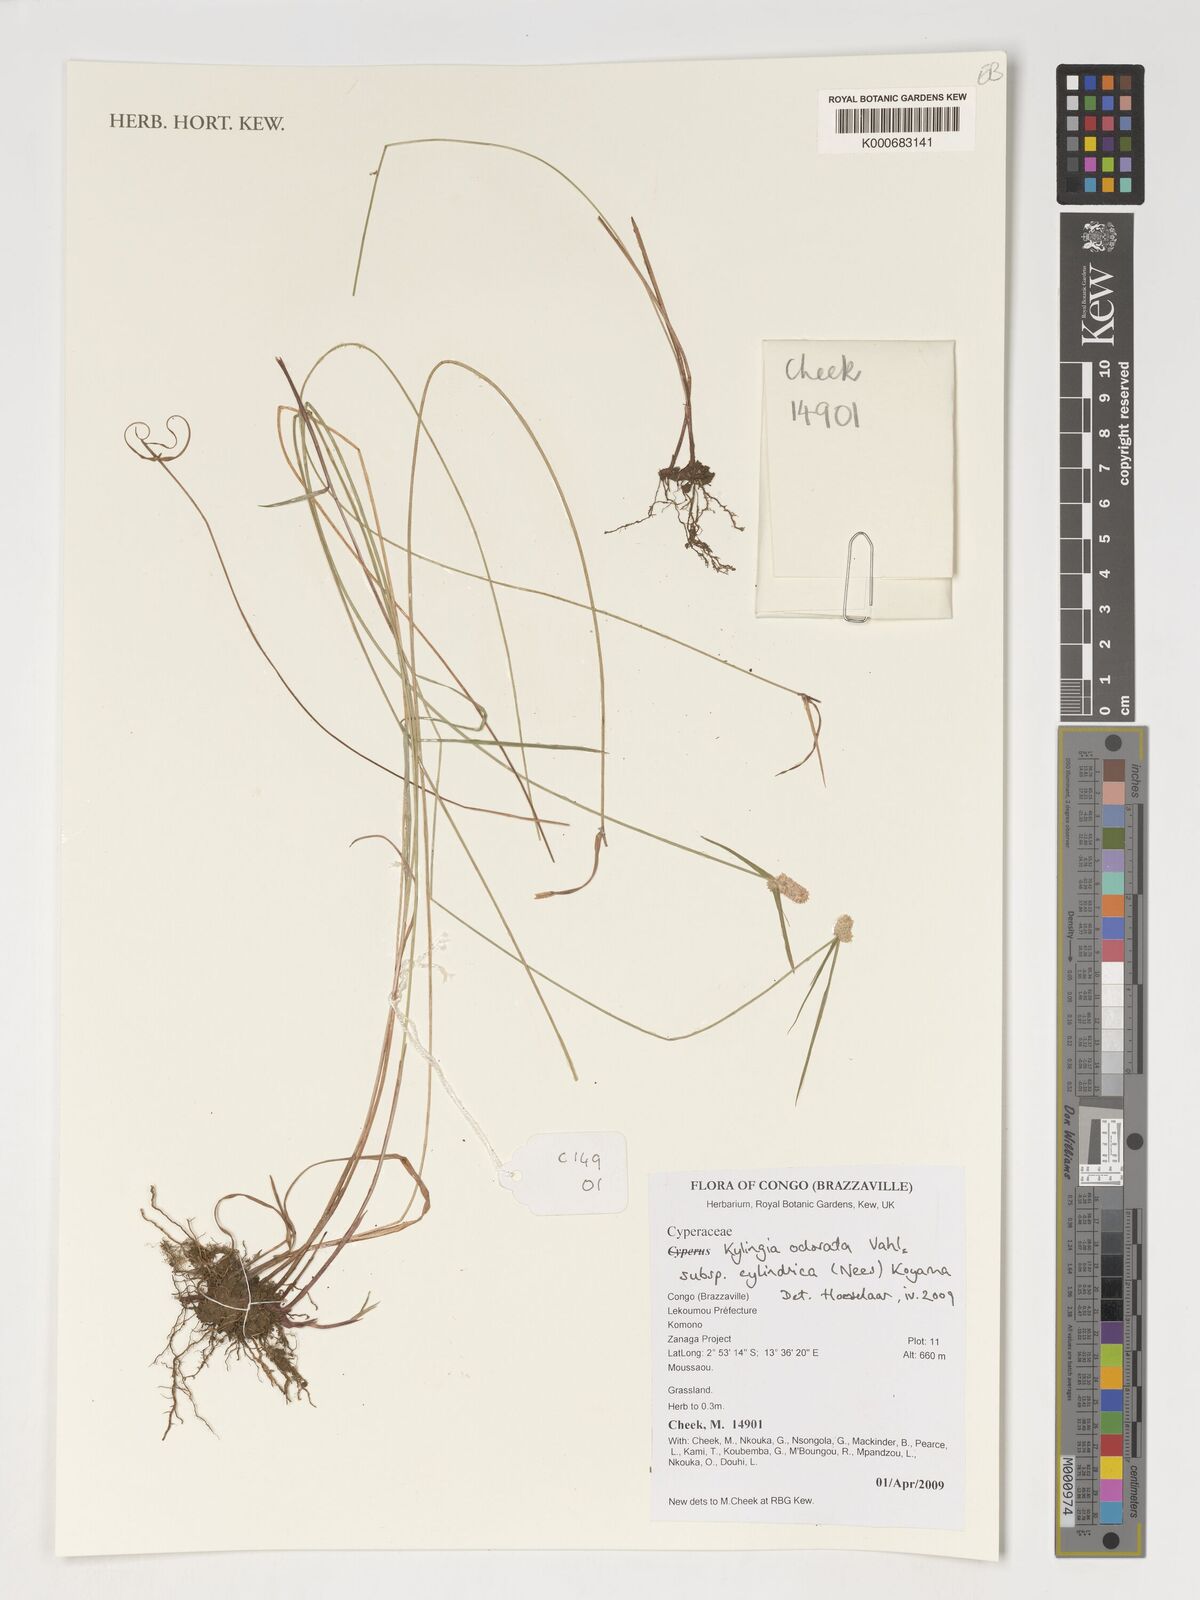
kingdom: Plantae
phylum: Tracheophyta
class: Liliopsida
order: Poales
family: Cyperaceae
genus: Cyperus
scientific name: Cyperus sesquiflorus
